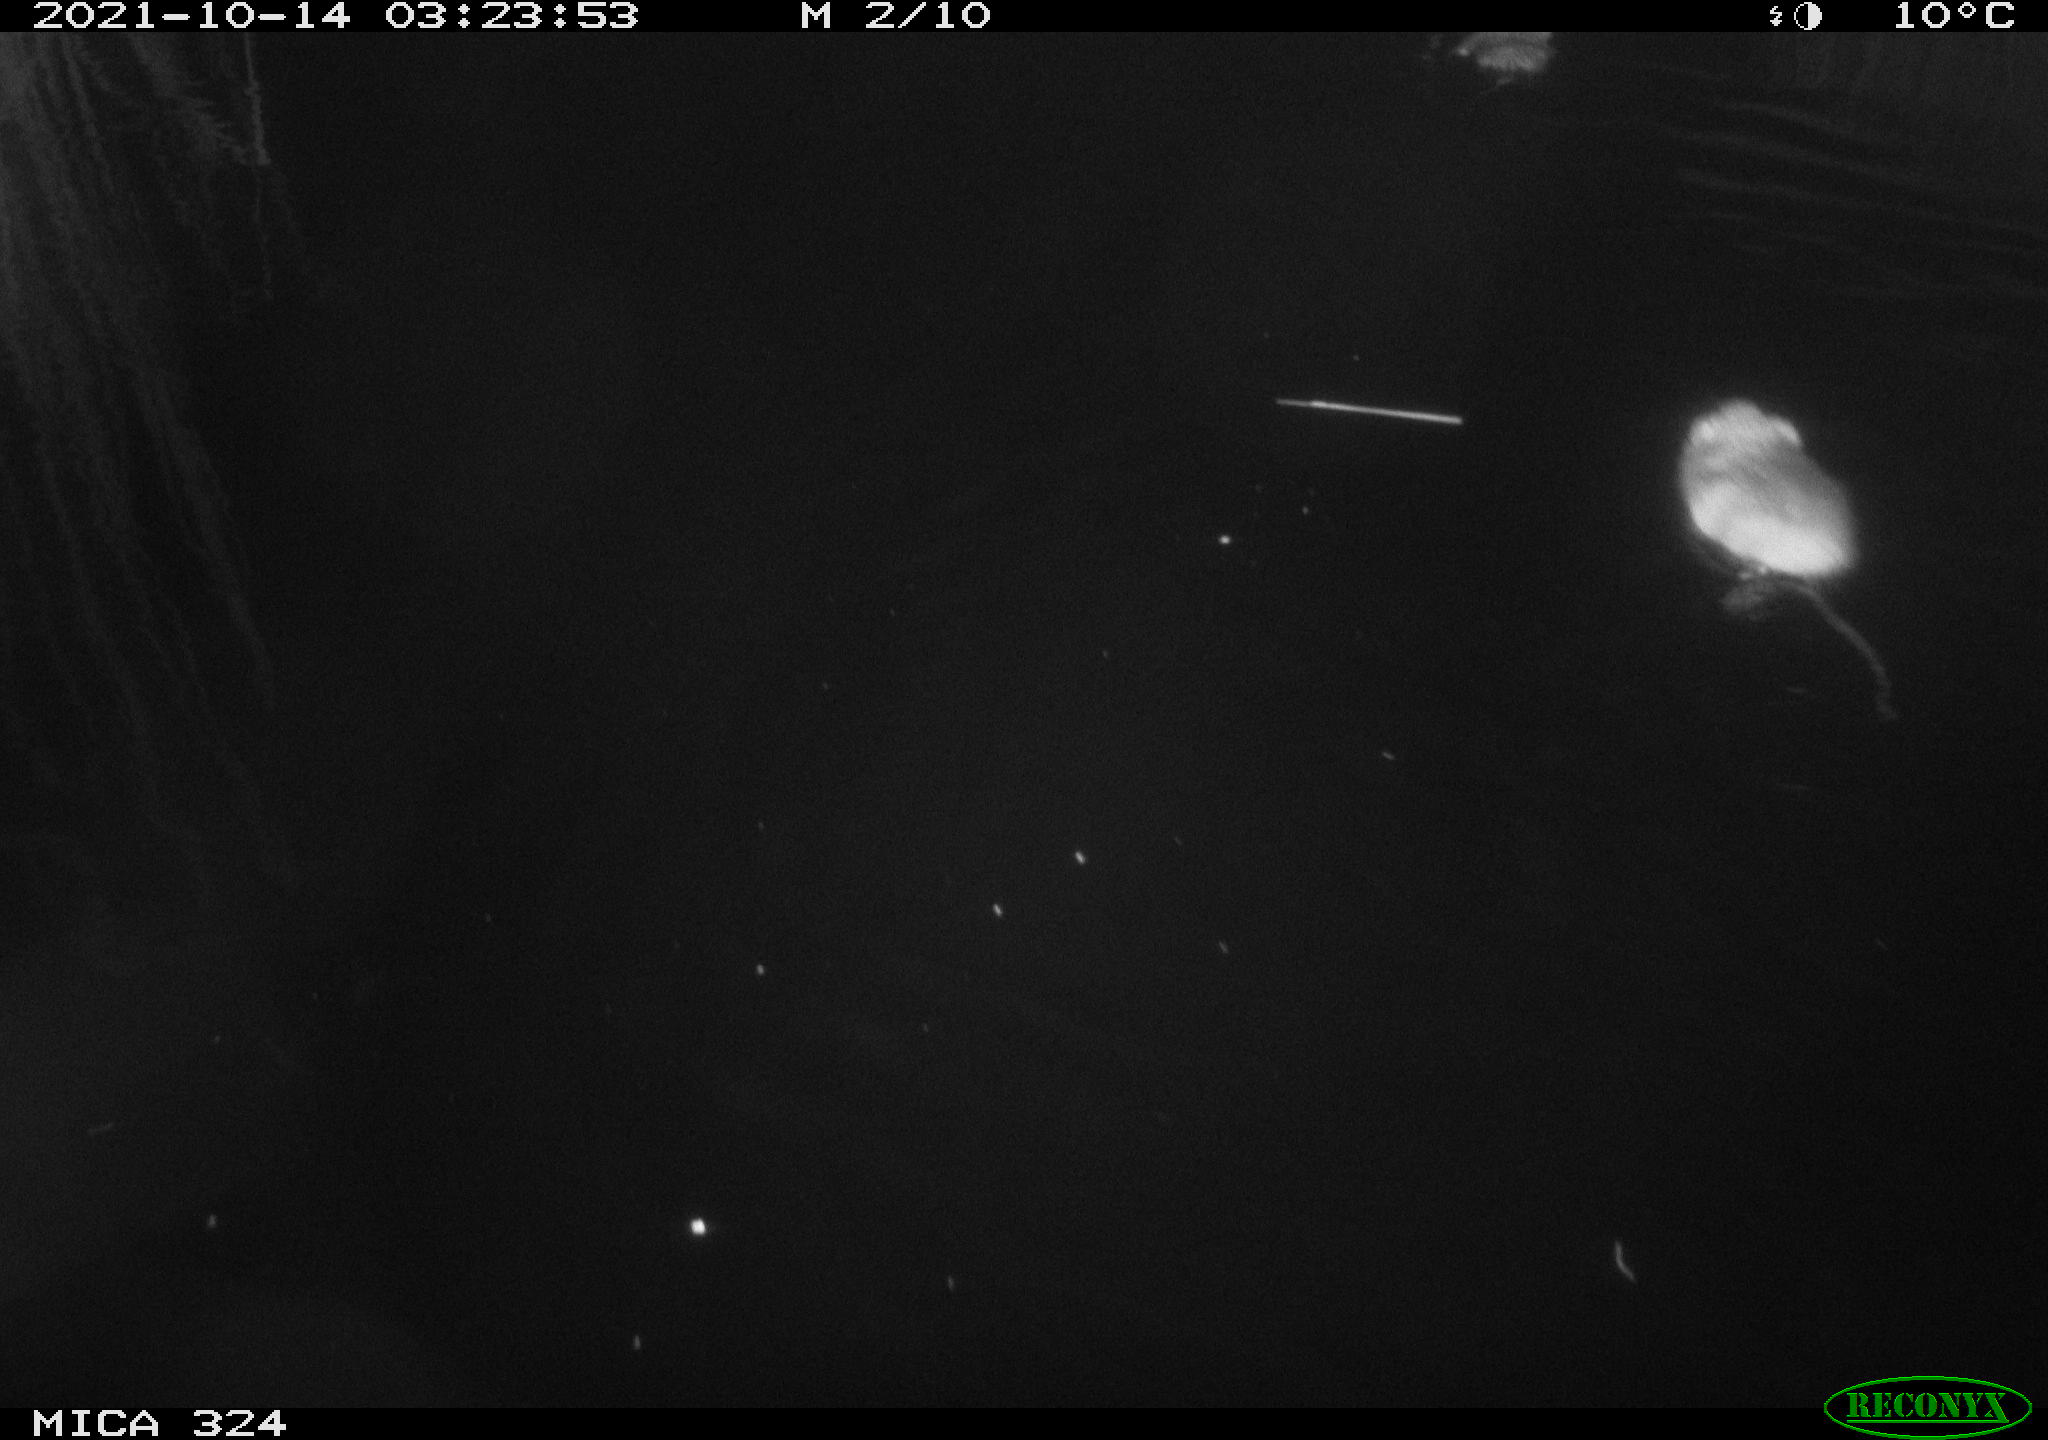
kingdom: Animalia
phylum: Chordata
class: Mammalia
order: Rodentia
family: Cricetidae
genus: Ondatra
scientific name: Ondatra zibethicus
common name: Muskrat
